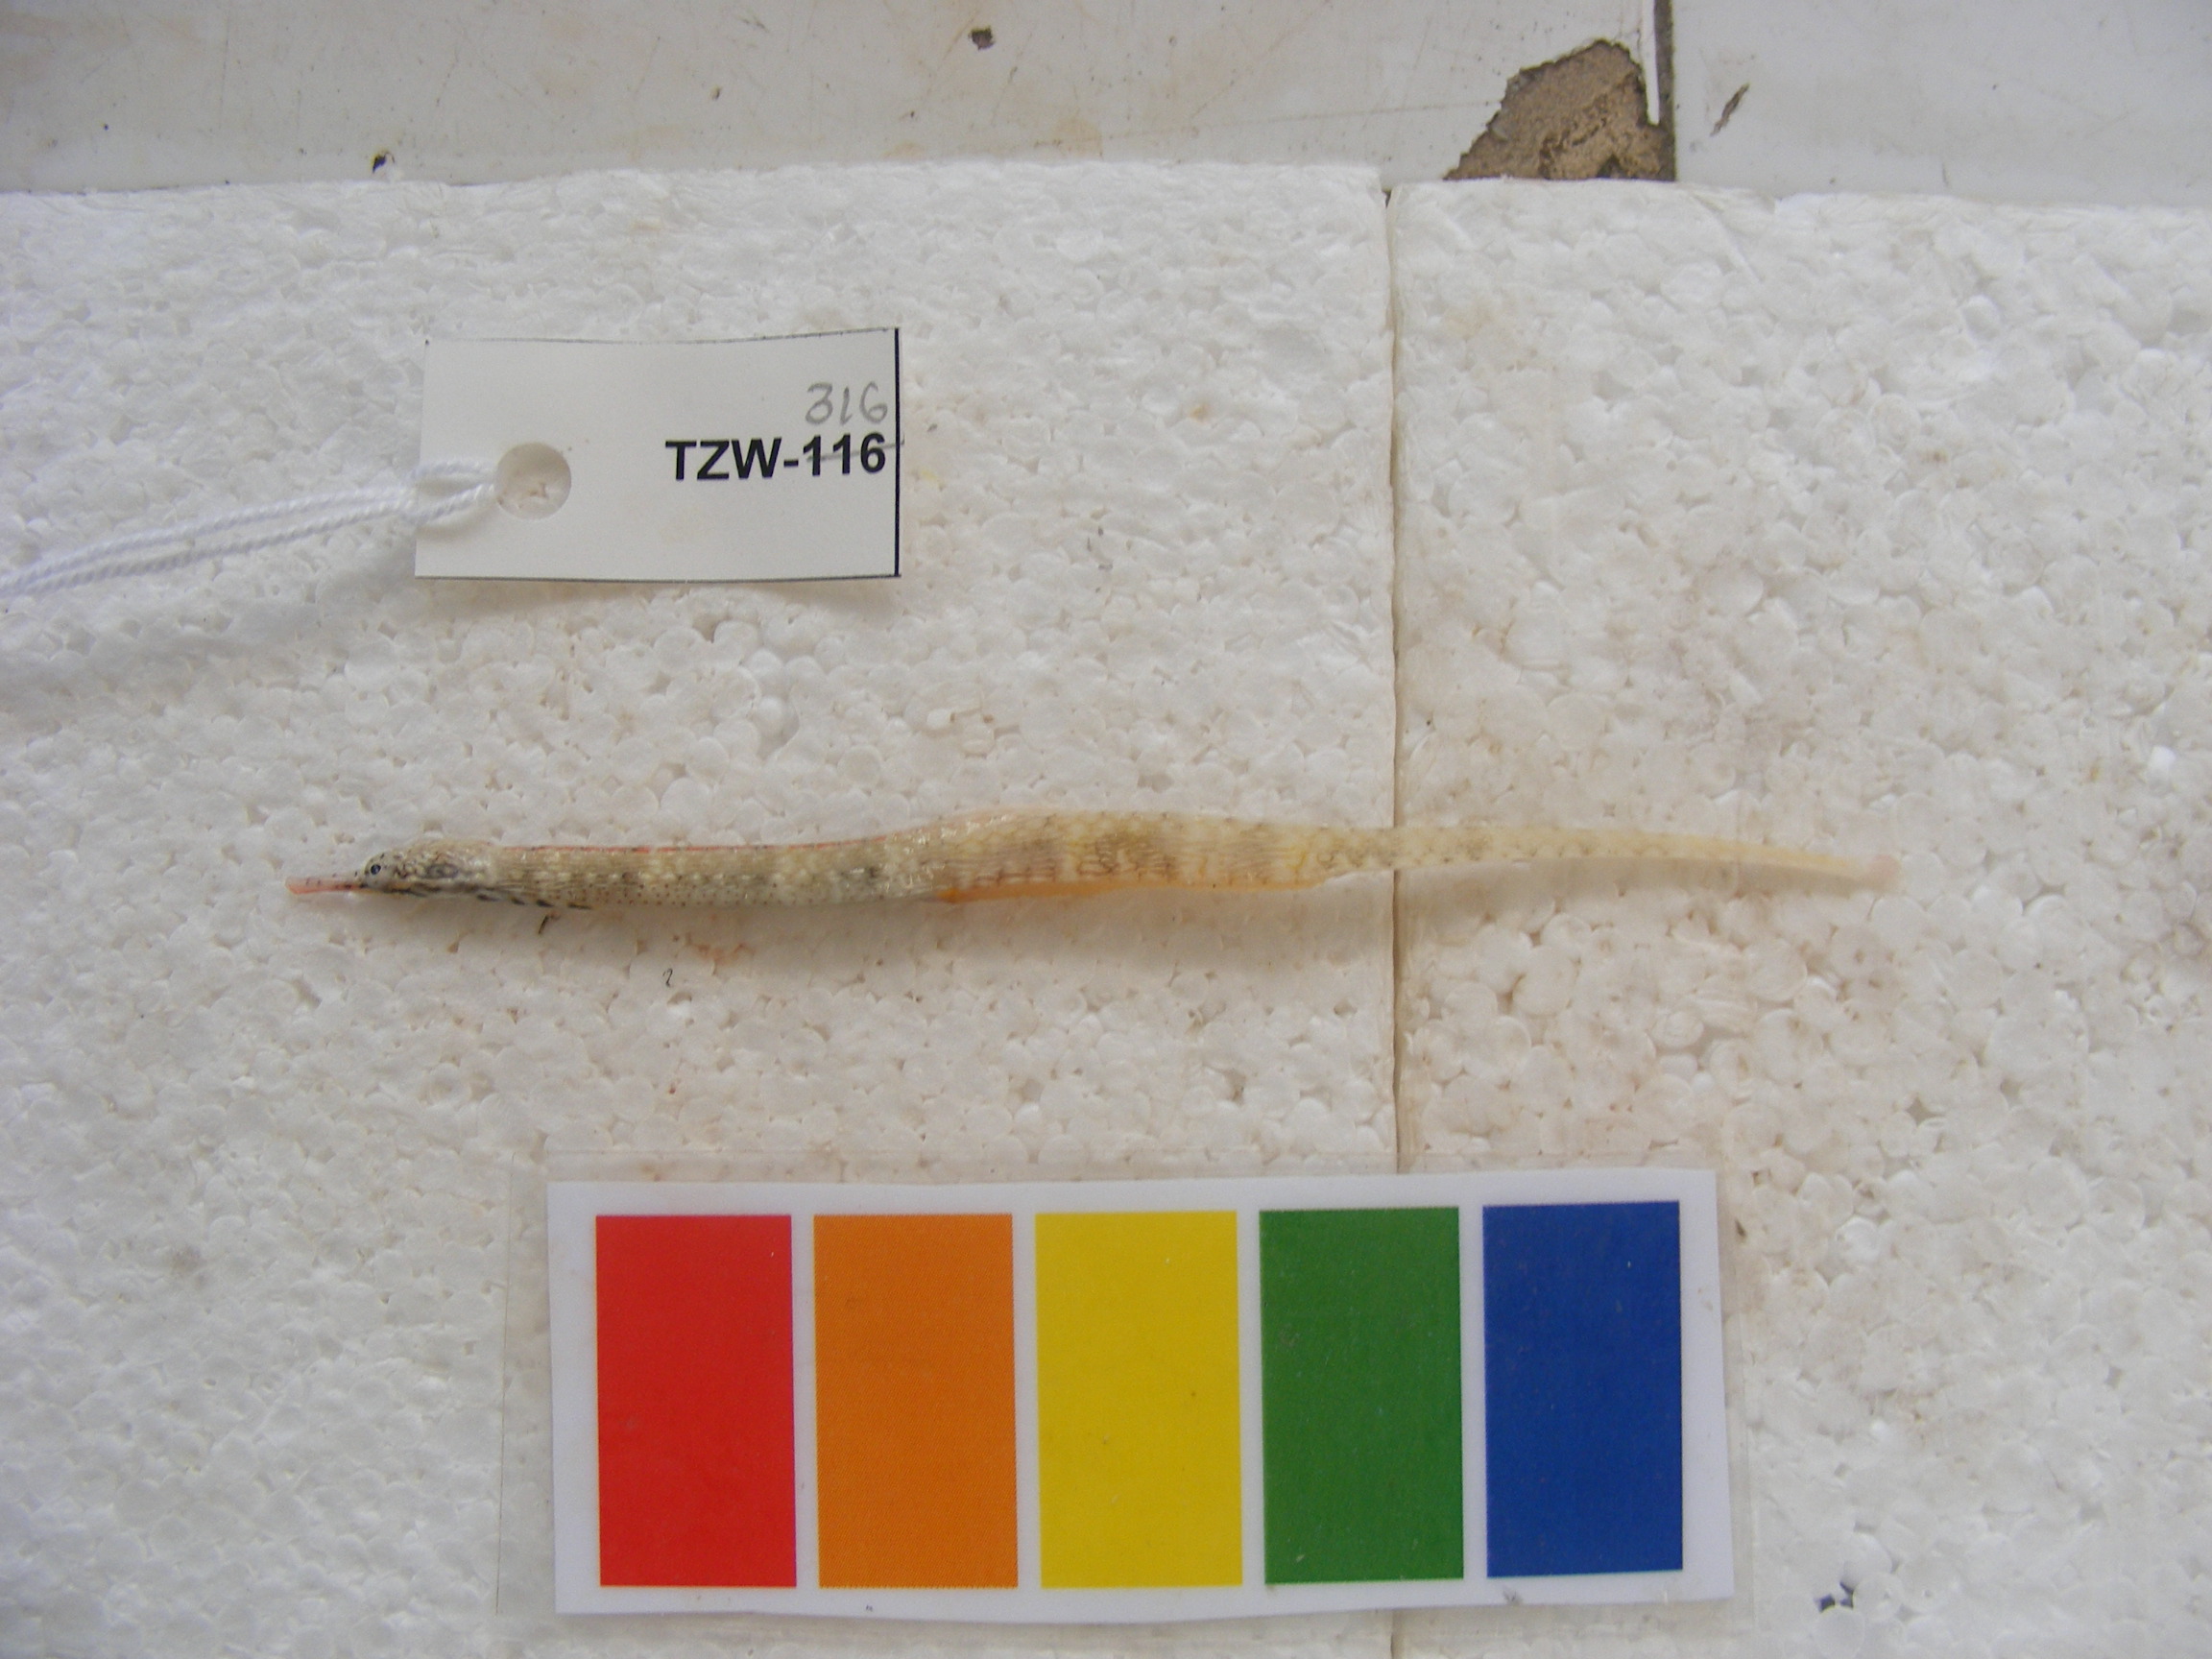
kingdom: Animalia
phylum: Chordata
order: Syngnathiformes
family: Syngnathidae
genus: Corythoichthys
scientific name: Corythoichthys haematopterus
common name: Bloodspot pipefish
